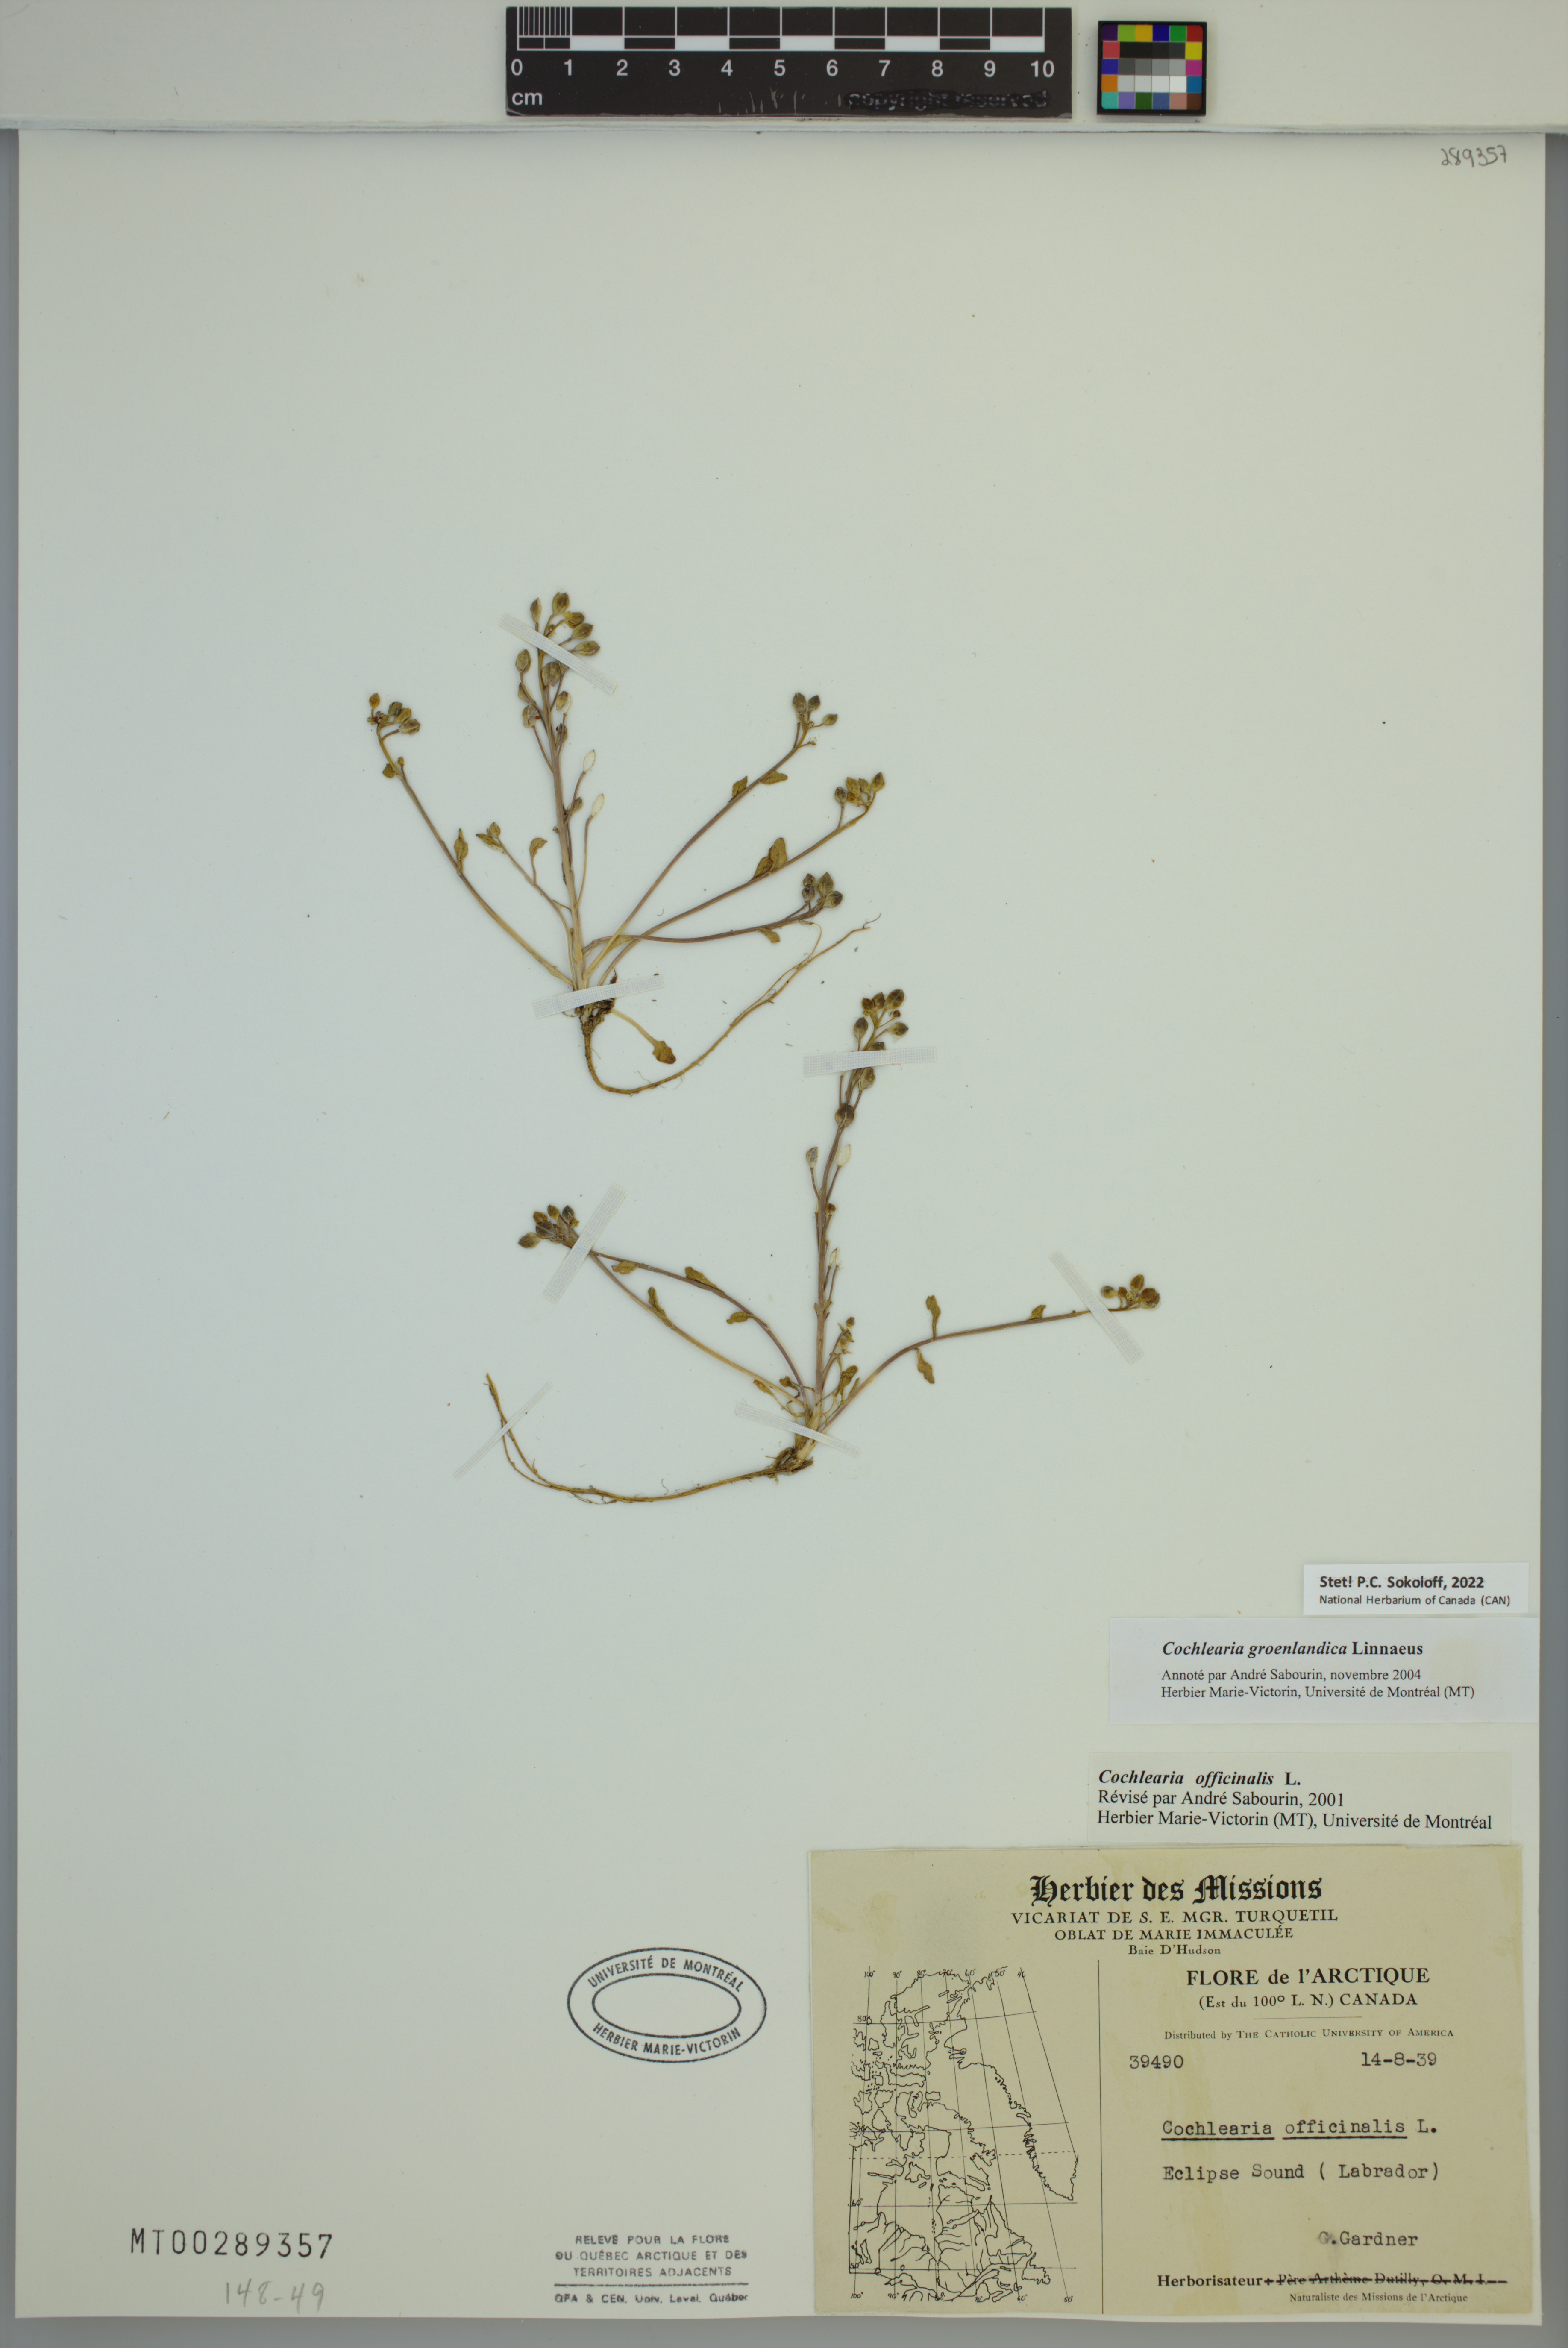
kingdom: Plantae
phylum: Tracheophyta
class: Magnoliopsida
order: Brassicales
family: Brassicaceae
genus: Cochlearia
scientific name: Cochlearia groenlandica
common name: Danish scurvygrass
